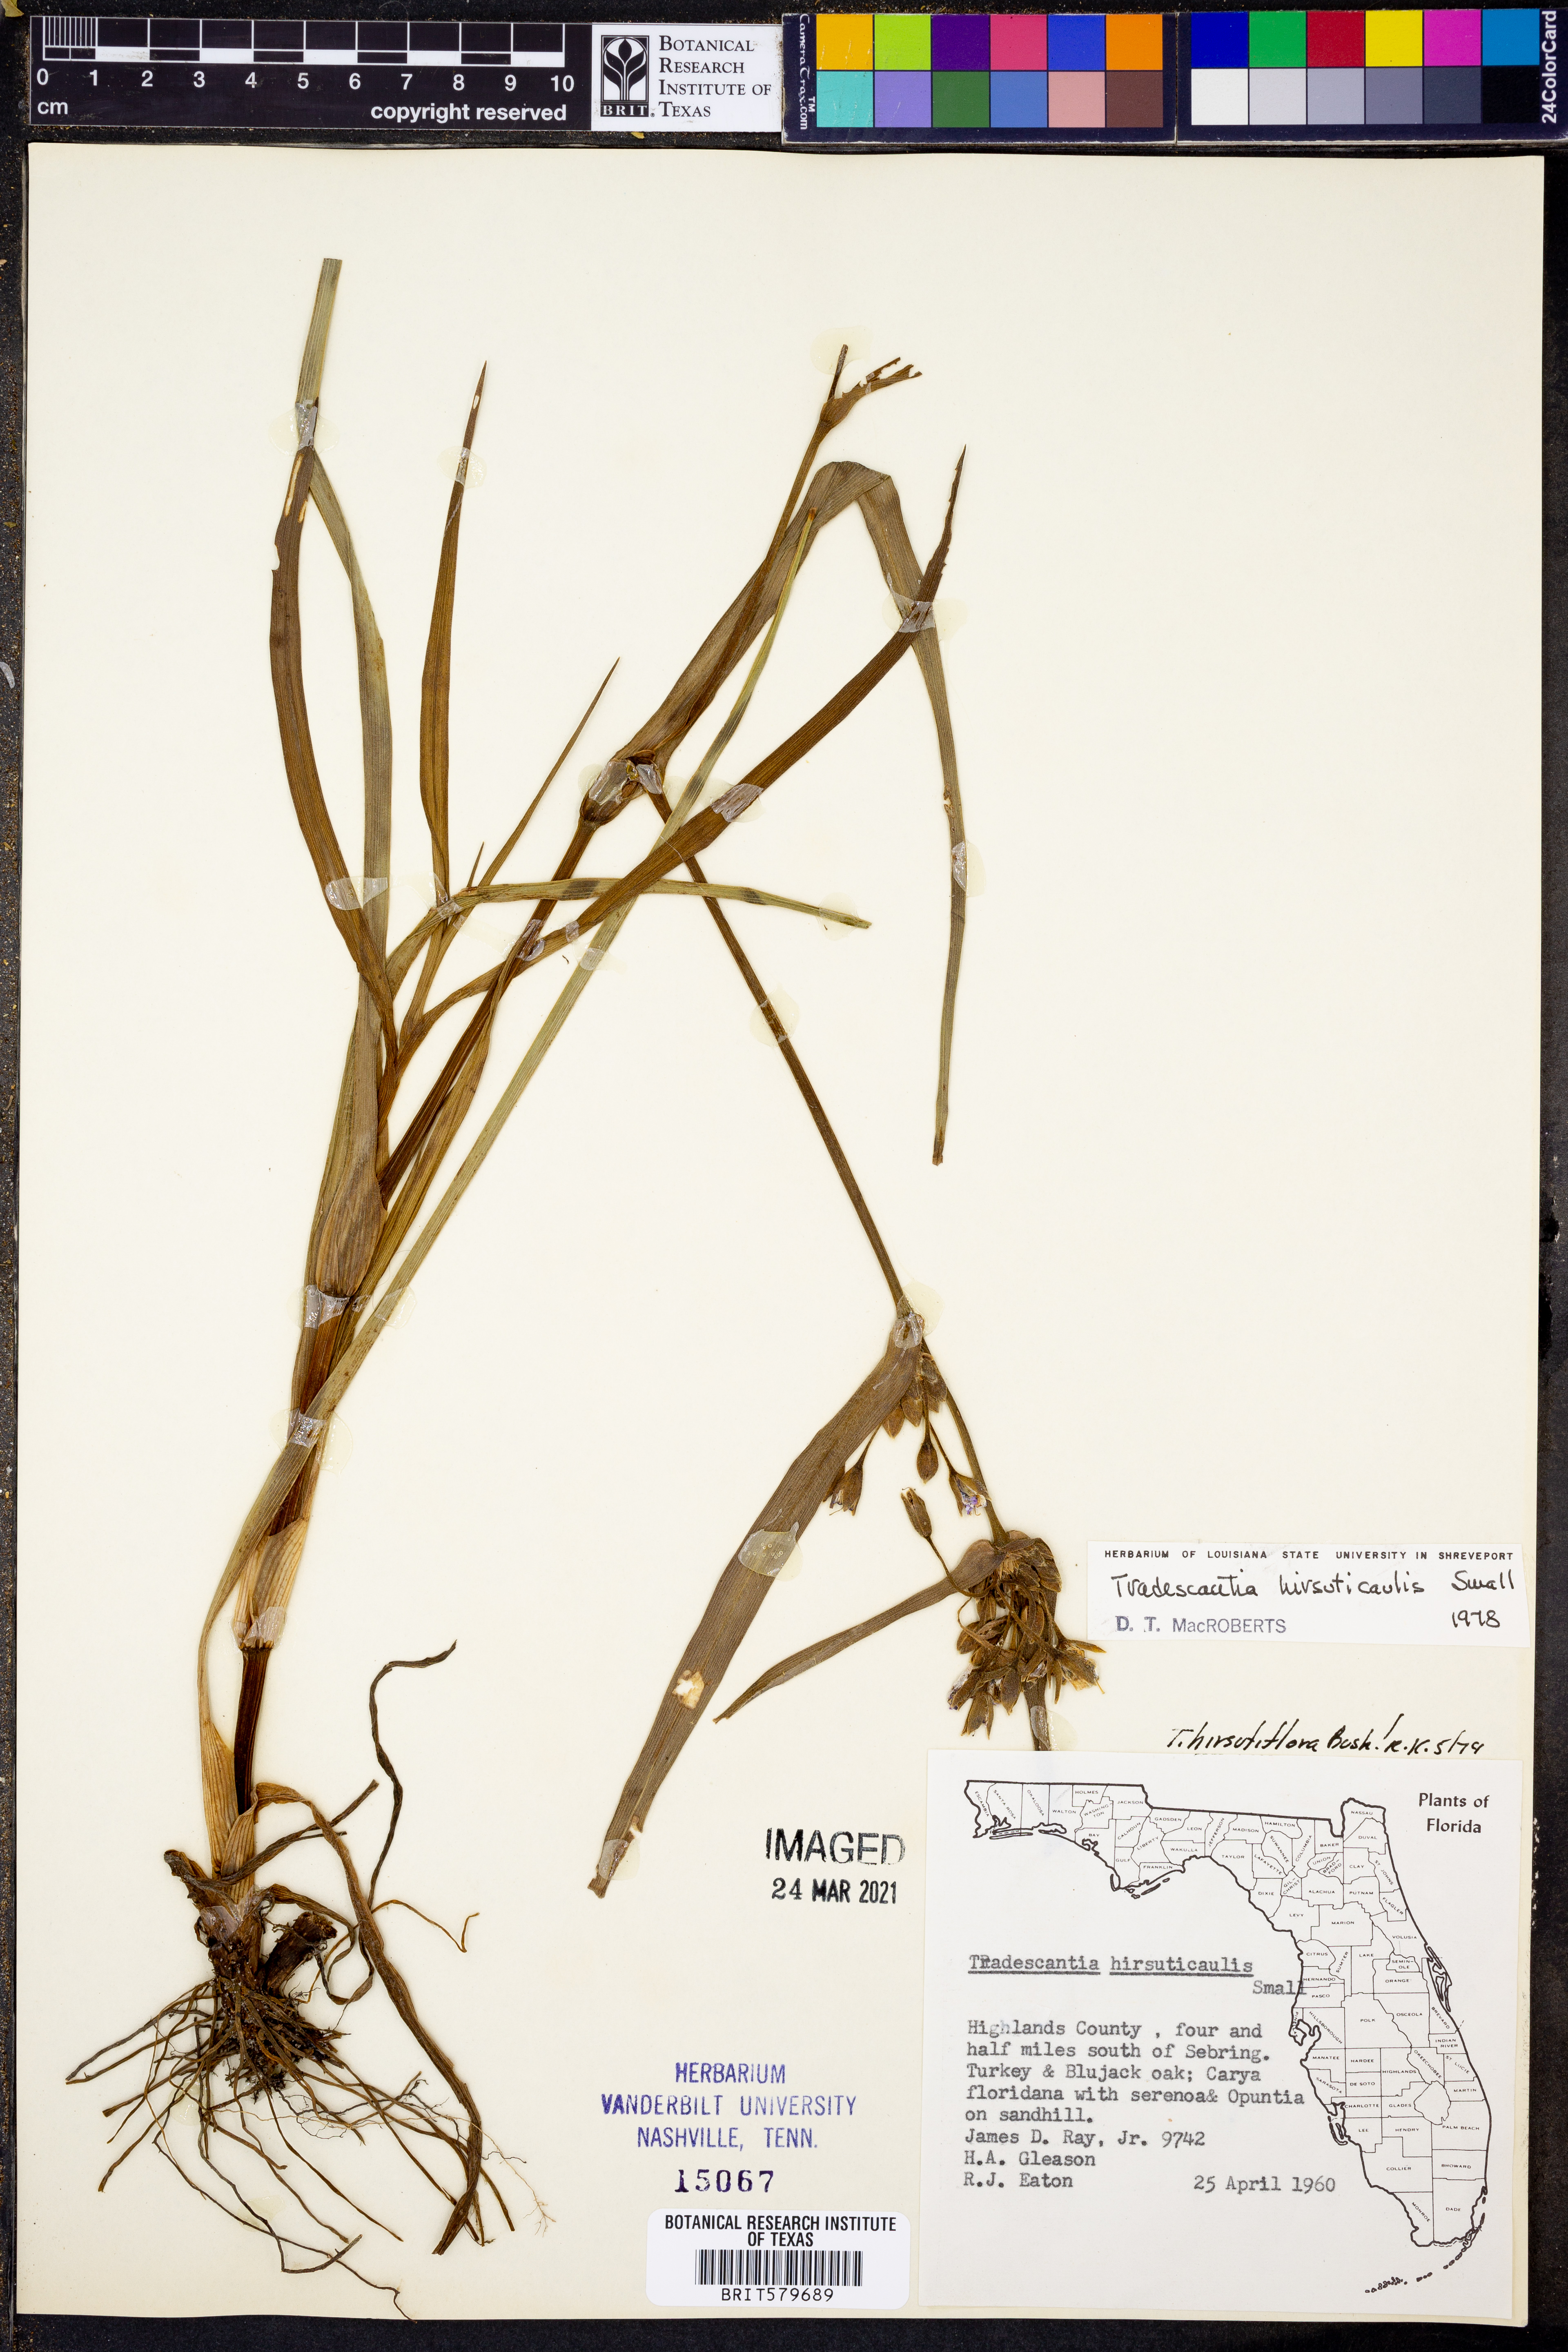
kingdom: Plantae
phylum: Tracheophyta
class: Liliopsida
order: Commelinales
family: Commelinaceae
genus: Tradescantia
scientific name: Tradescantia hirsuticaulis
